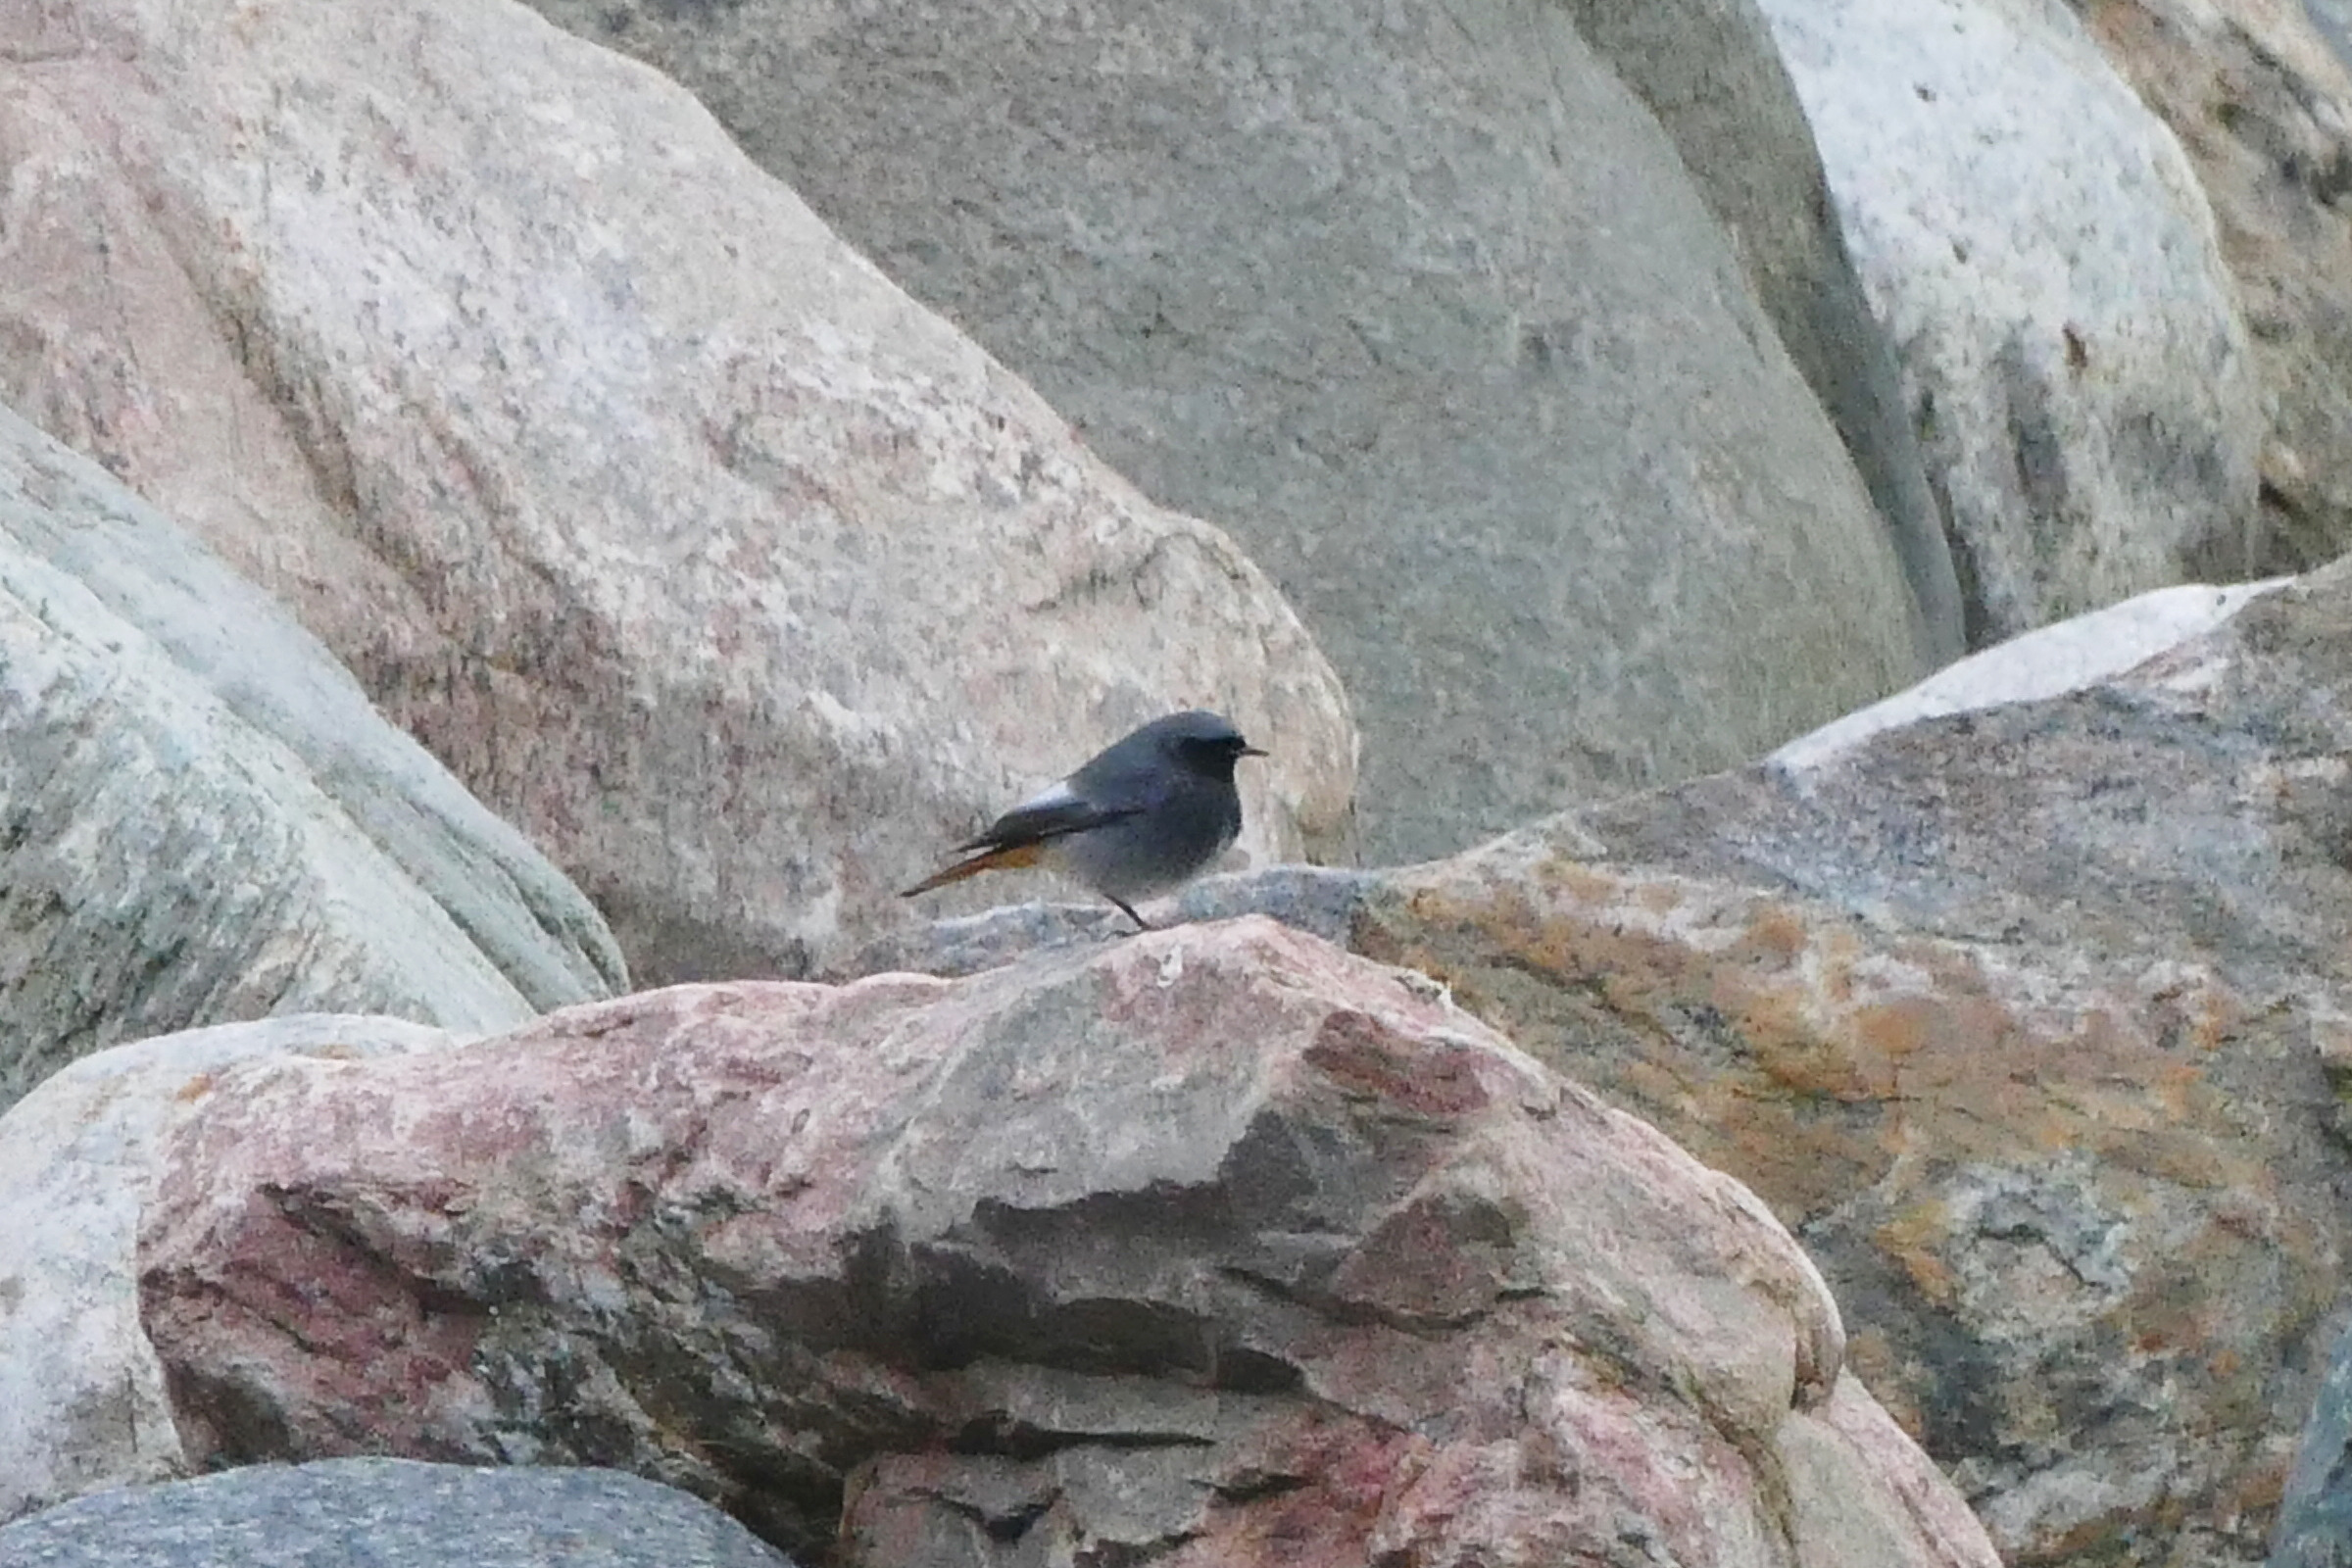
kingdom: Animalia
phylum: Chordata
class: Aves
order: Passeriformes
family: Muscicapidae
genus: Phoenicurus
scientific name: Phoenicurus ochruros
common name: Husrødstjert
